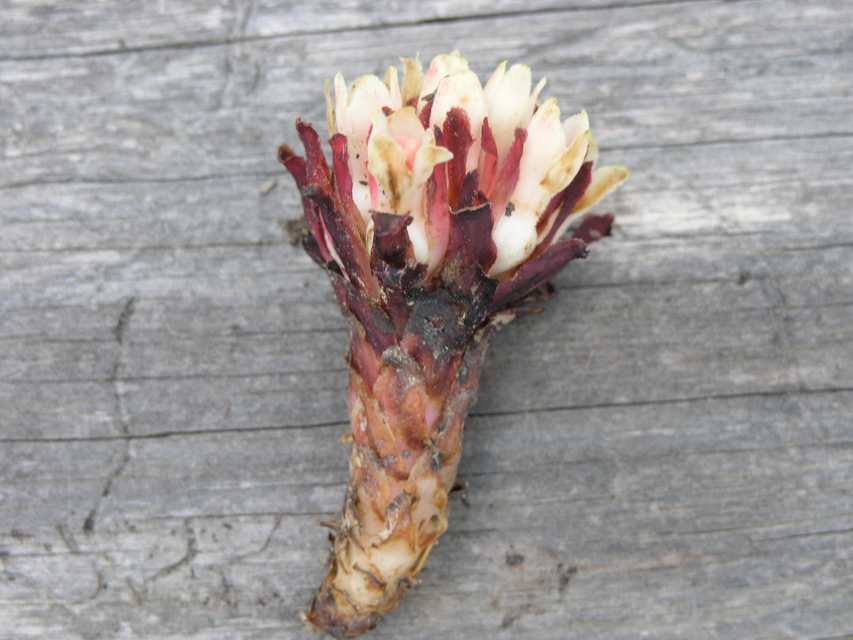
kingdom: Plantae
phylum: Tracheophyta
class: Magnoliopsida
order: Malvales
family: Cytinaceae
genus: Cytinus
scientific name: Cytinus ruber
